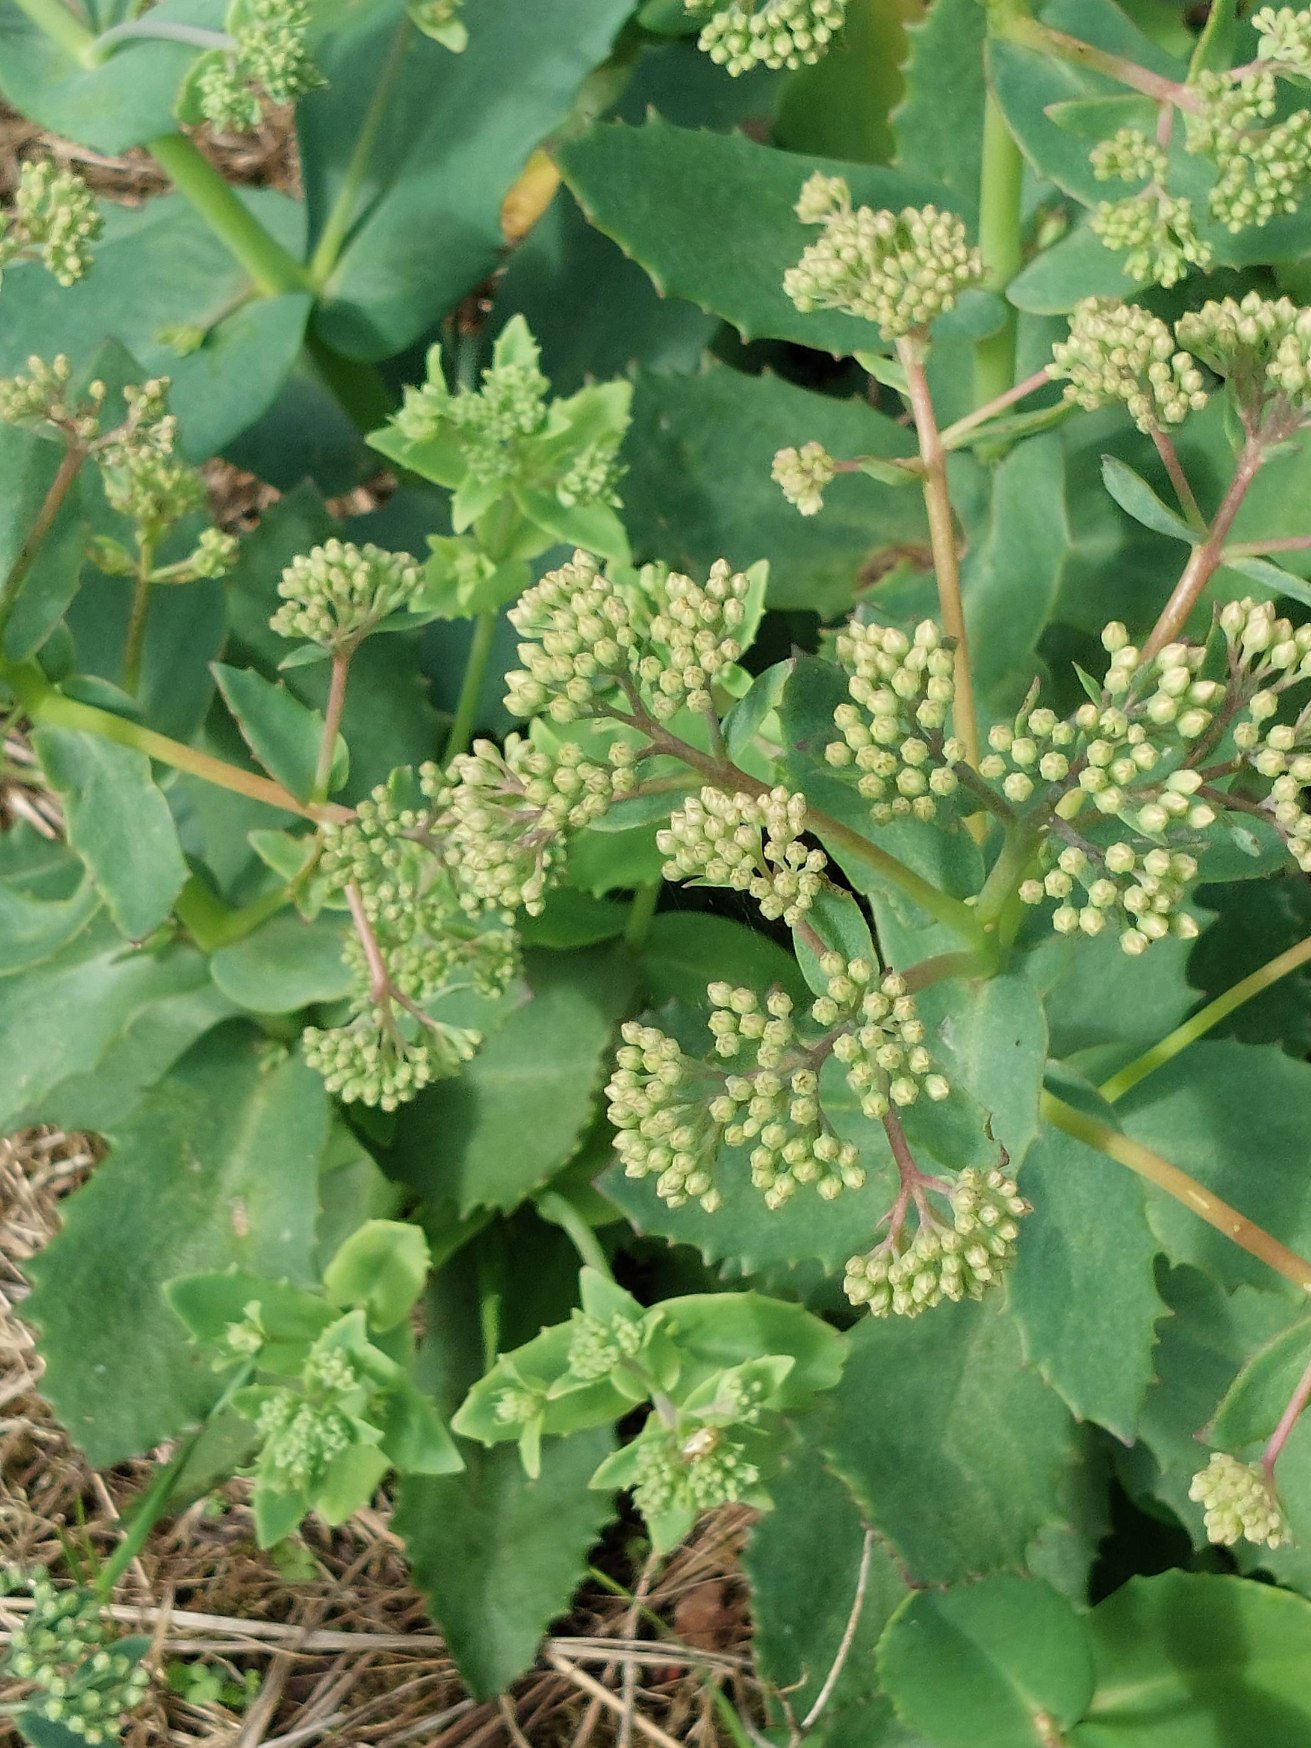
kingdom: Plantae
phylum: Tracheophyta
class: Magnoliopsida
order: Saxifragales
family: Crassulaceae
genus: Hylotelephium
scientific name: Hylotelephium maximum
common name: Almindelig sankthansurt
